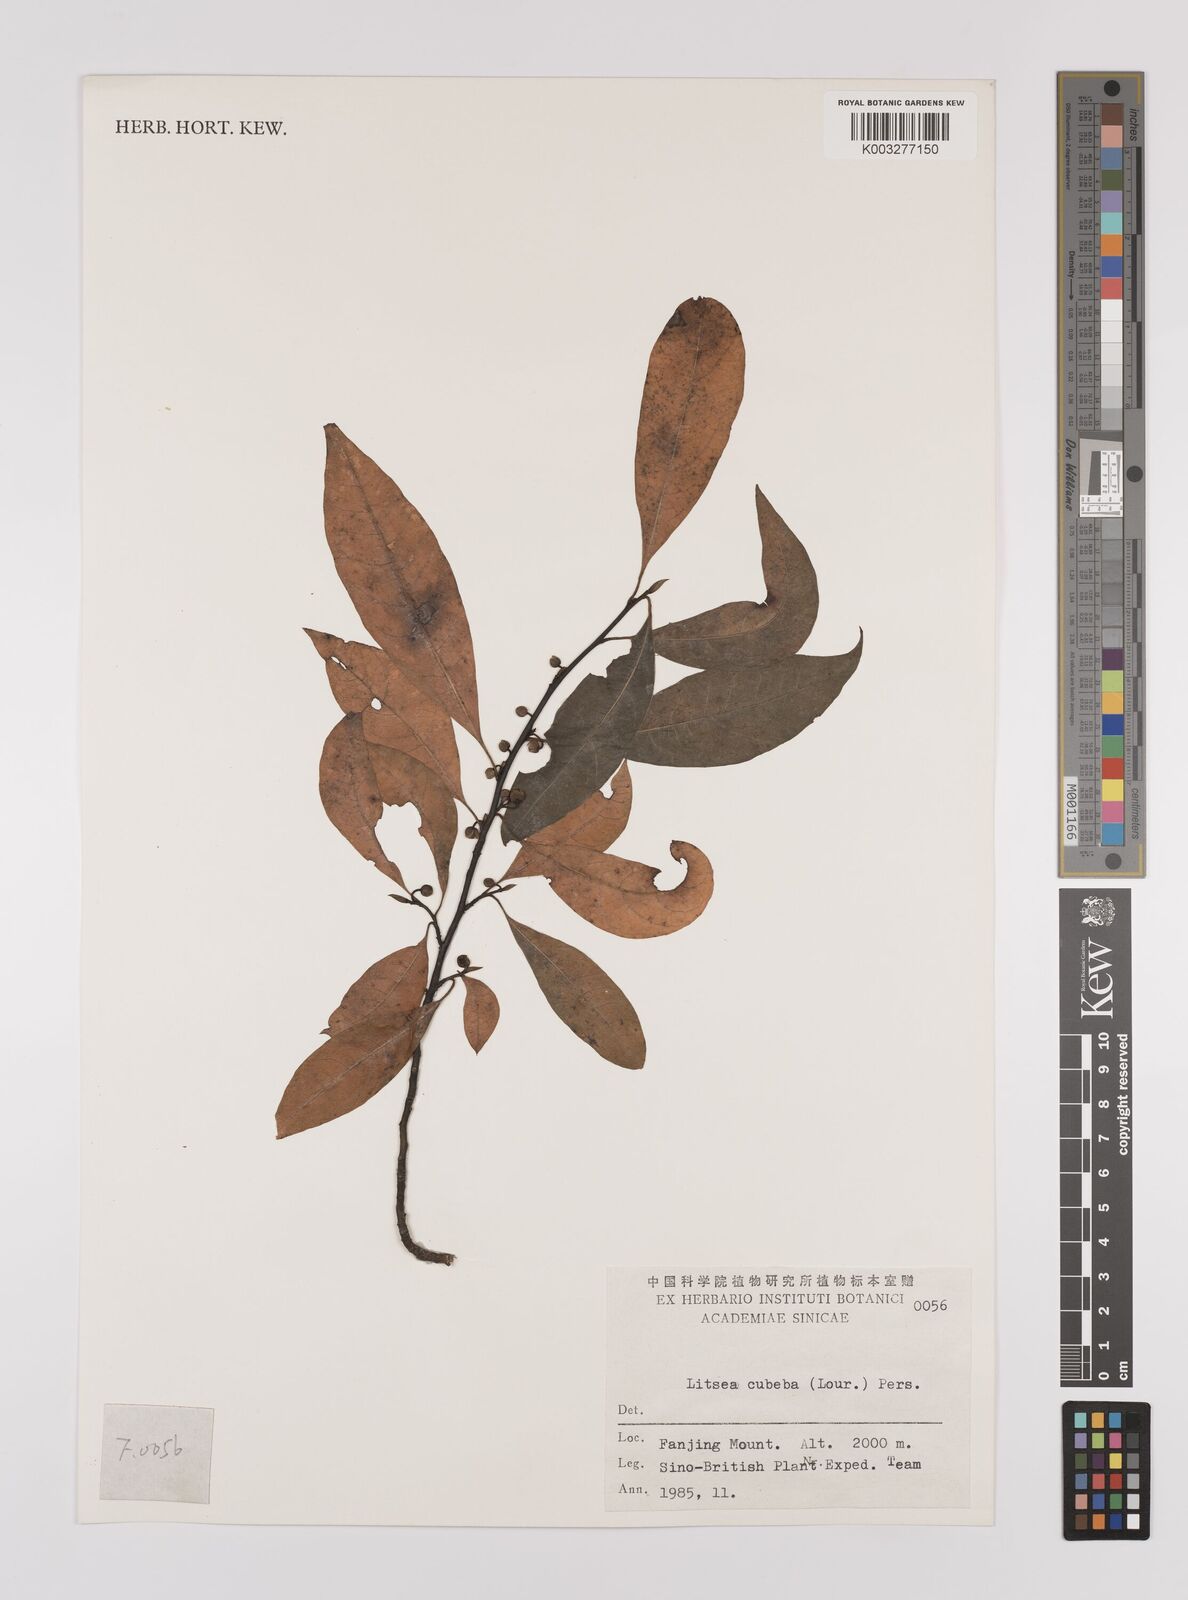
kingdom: Plantae
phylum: Tracheophyta
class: Magnoliopsida
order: Laurales
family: Lauraceae
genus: Litsea
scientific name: Litsea cubeba
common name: Mountain-pepper
